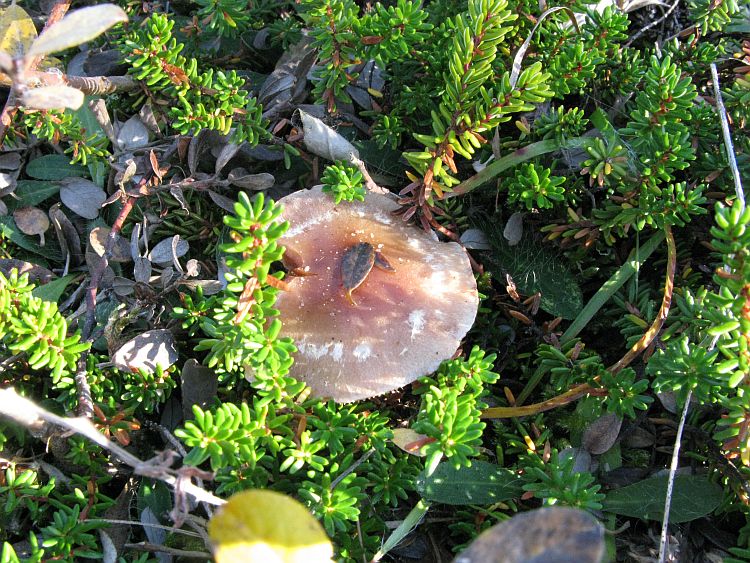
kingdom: Fungi
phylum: Basidiomycota
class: Agaricomycetes
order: Agaricales
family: Hymenogastraceae
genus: Hebeloma
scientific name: Hebeloma mesophaeum
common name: lerbrun tåreblad
